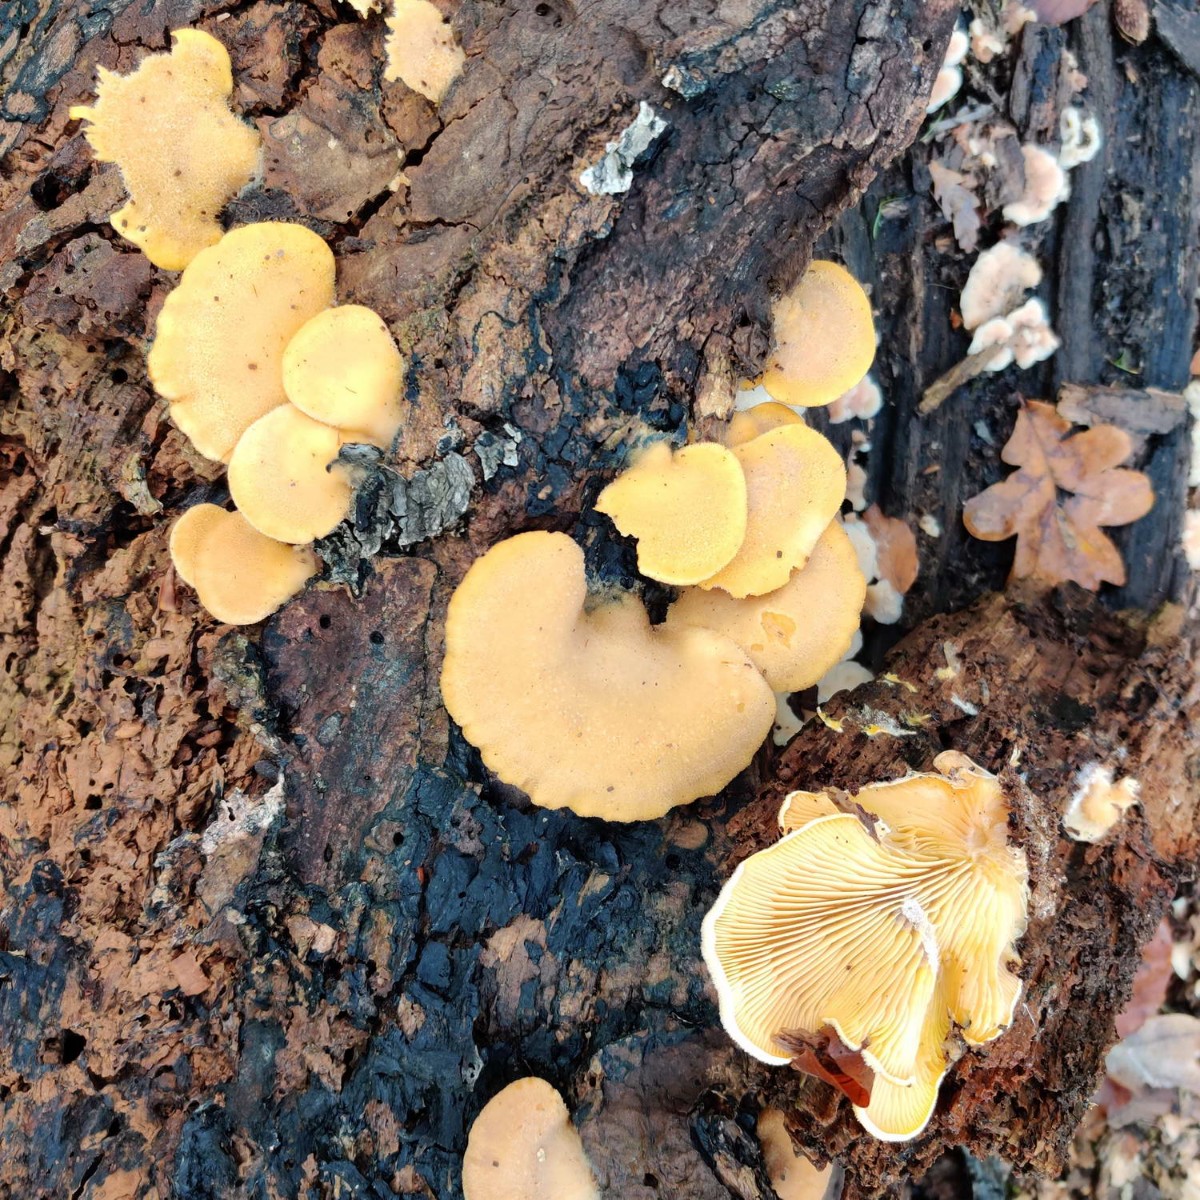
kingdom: Fungi
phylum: Basidiomycota
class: Agaricomycetes
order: Agaricales
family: Phyllotopsidaceae
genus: Phyllotopsis
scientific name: Phyllotopsis nidulans
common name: okkerblad
